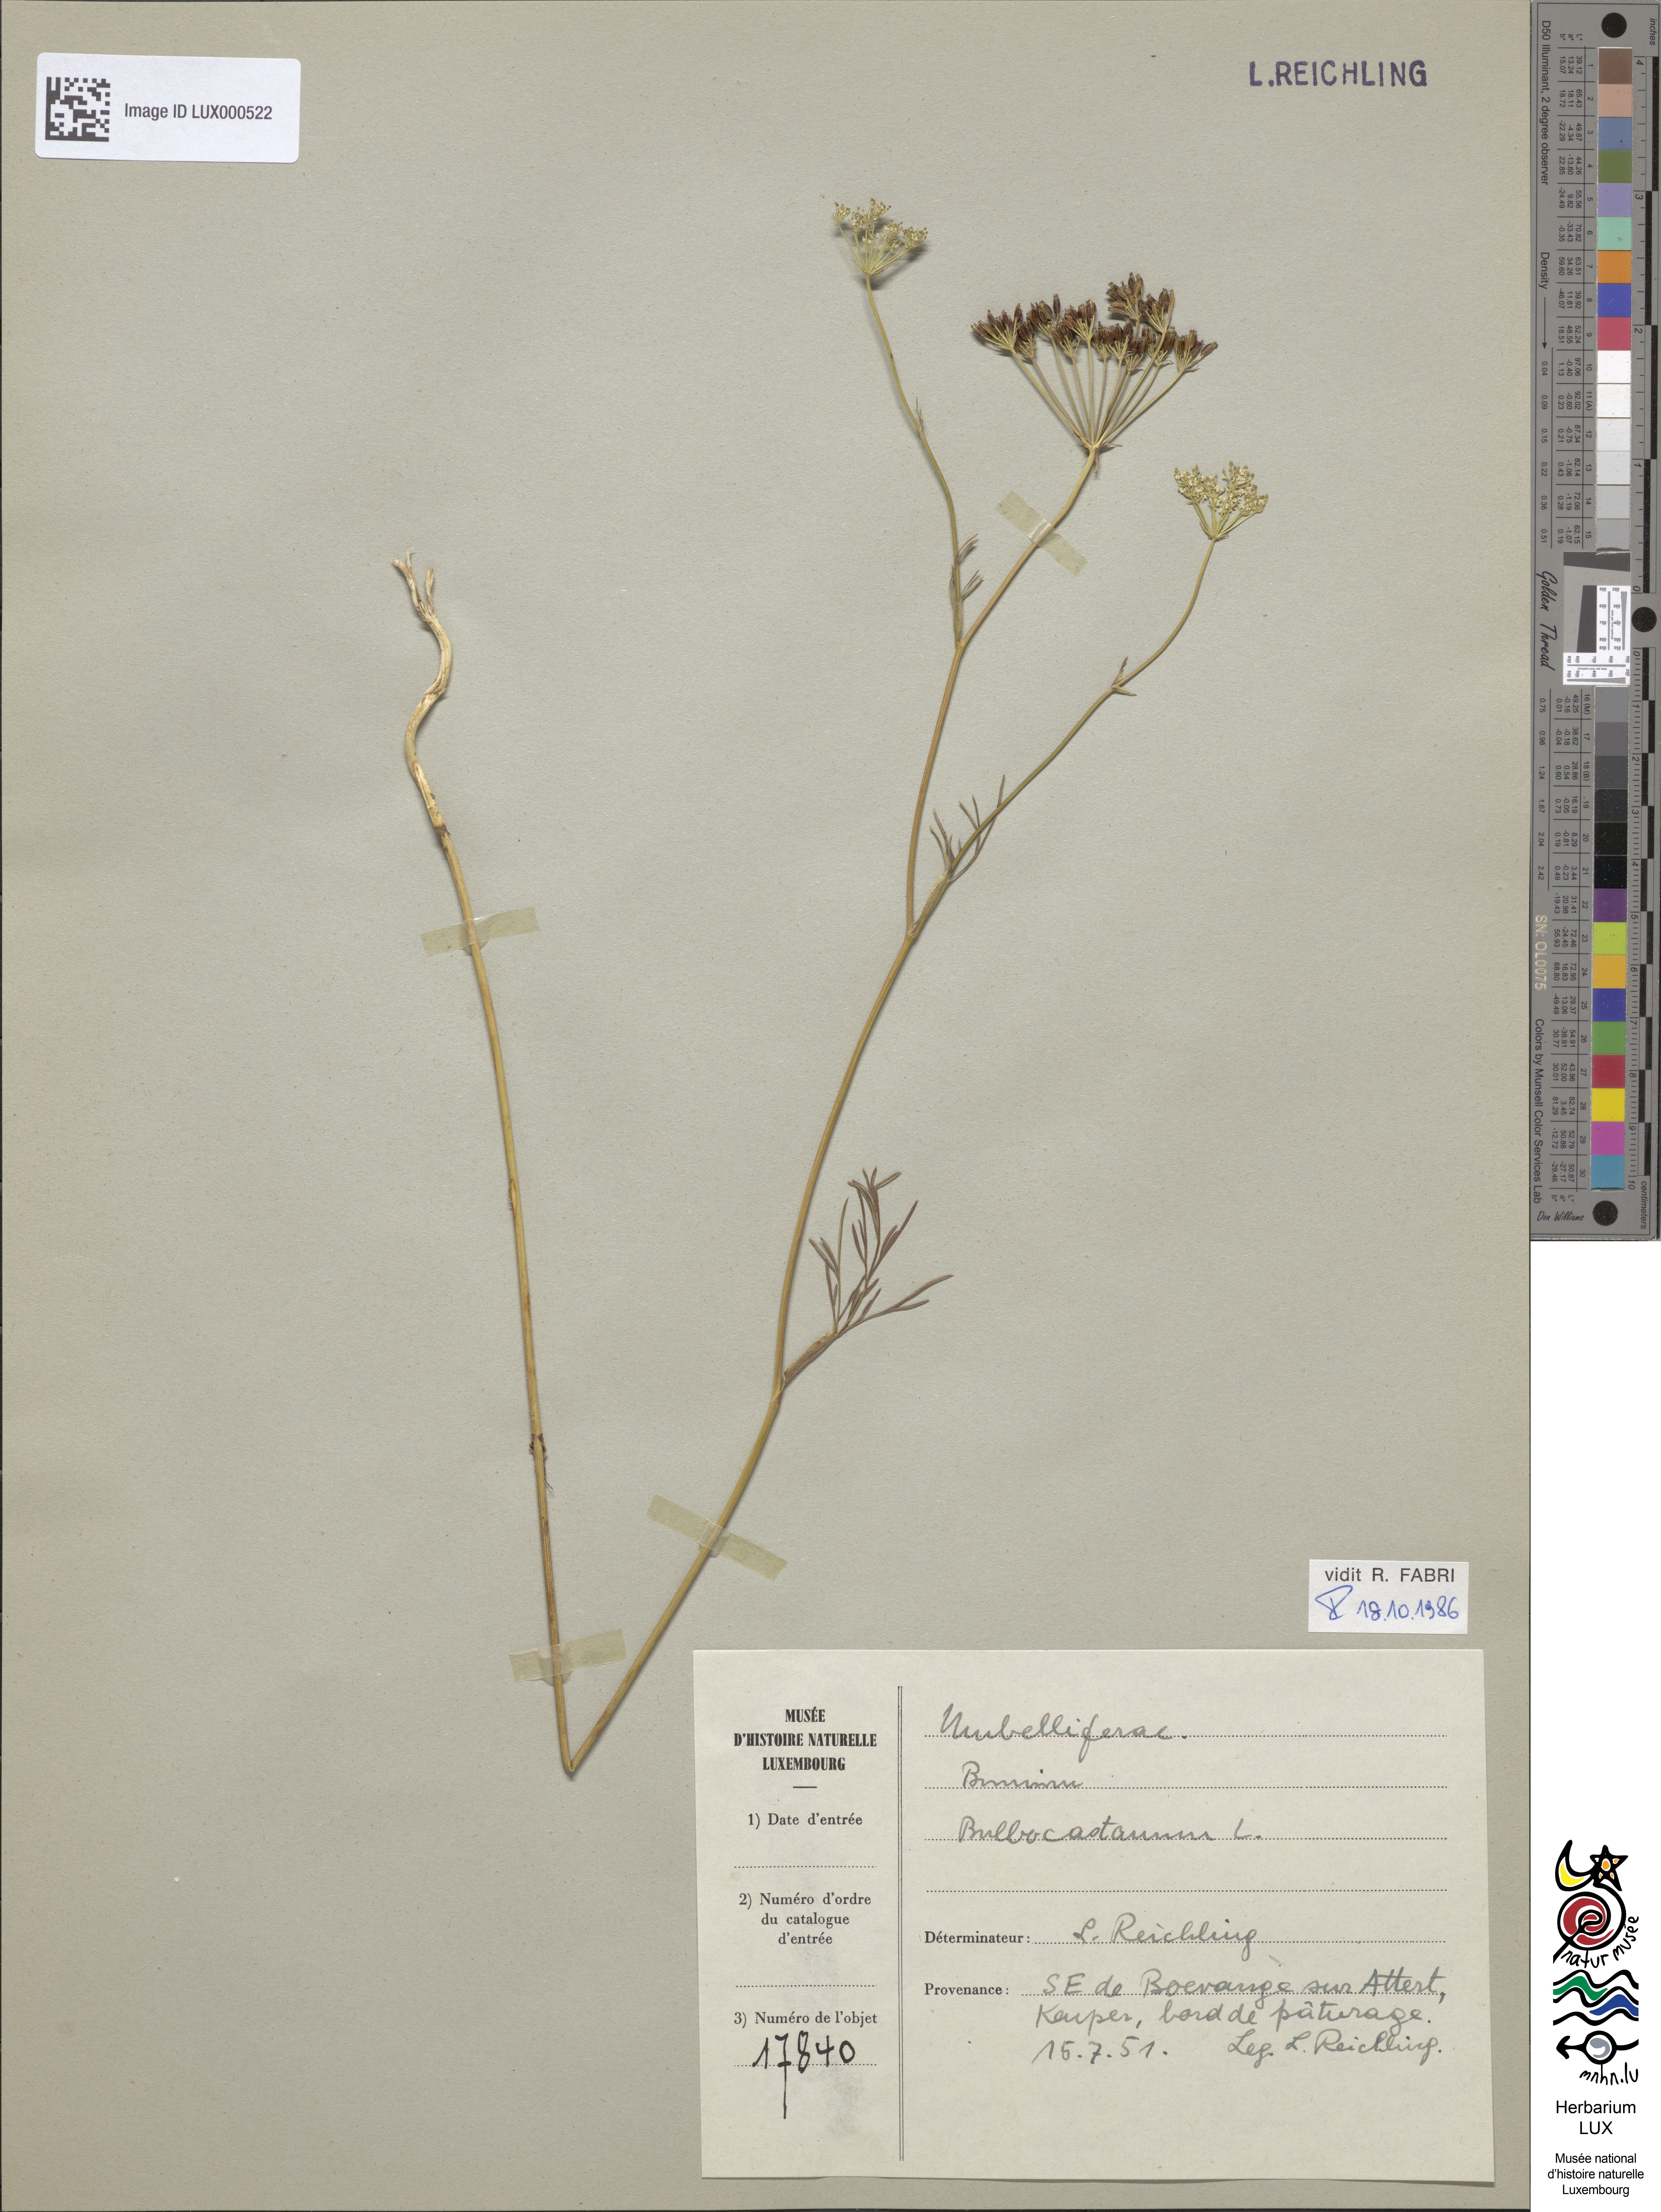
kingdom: Plantae
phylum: Tracheophyta
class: Magnoliopsida
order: Apiales
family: Apiaceae
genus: Bunium
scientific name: Bunium bulbocastanum
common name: Great pignut
